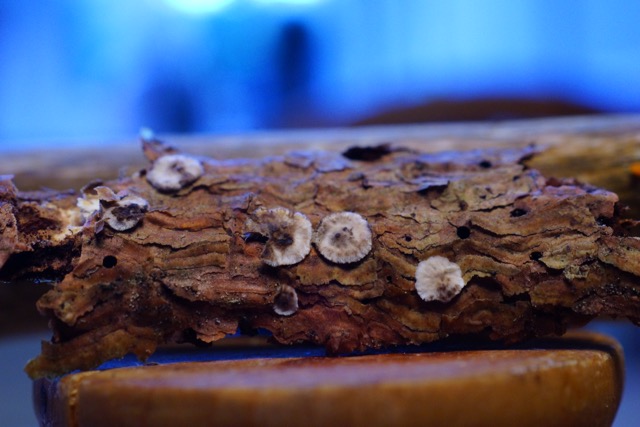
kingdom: Fungi
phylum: Basidiomycota
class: Agaricomycetes
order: Russulales
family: Stereaceae
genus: Stereum
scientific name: Stereum sanguinolentum
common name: blødende lædersvamp
